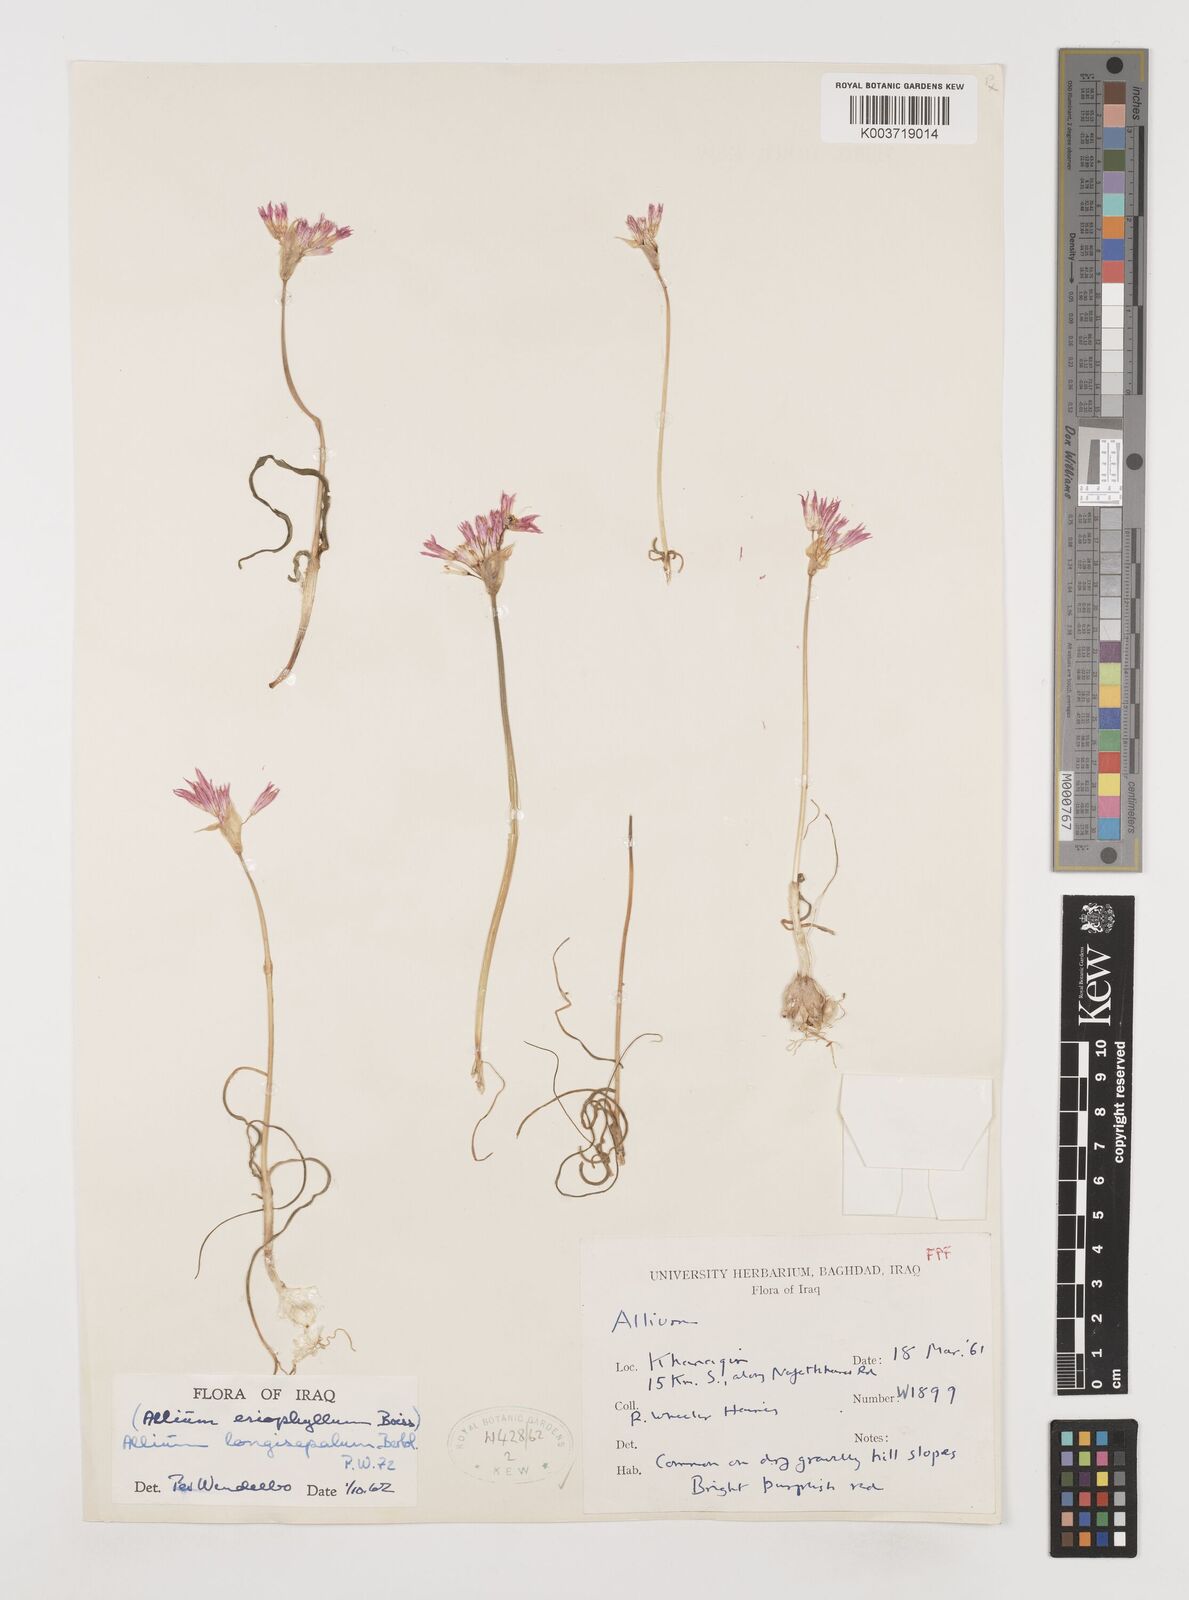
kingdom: Plantae
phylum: Tracheophyta
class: Liliopsida
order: Asparagales
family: Amaryllidaceae
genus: Allium
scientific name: Allium longisepalum
